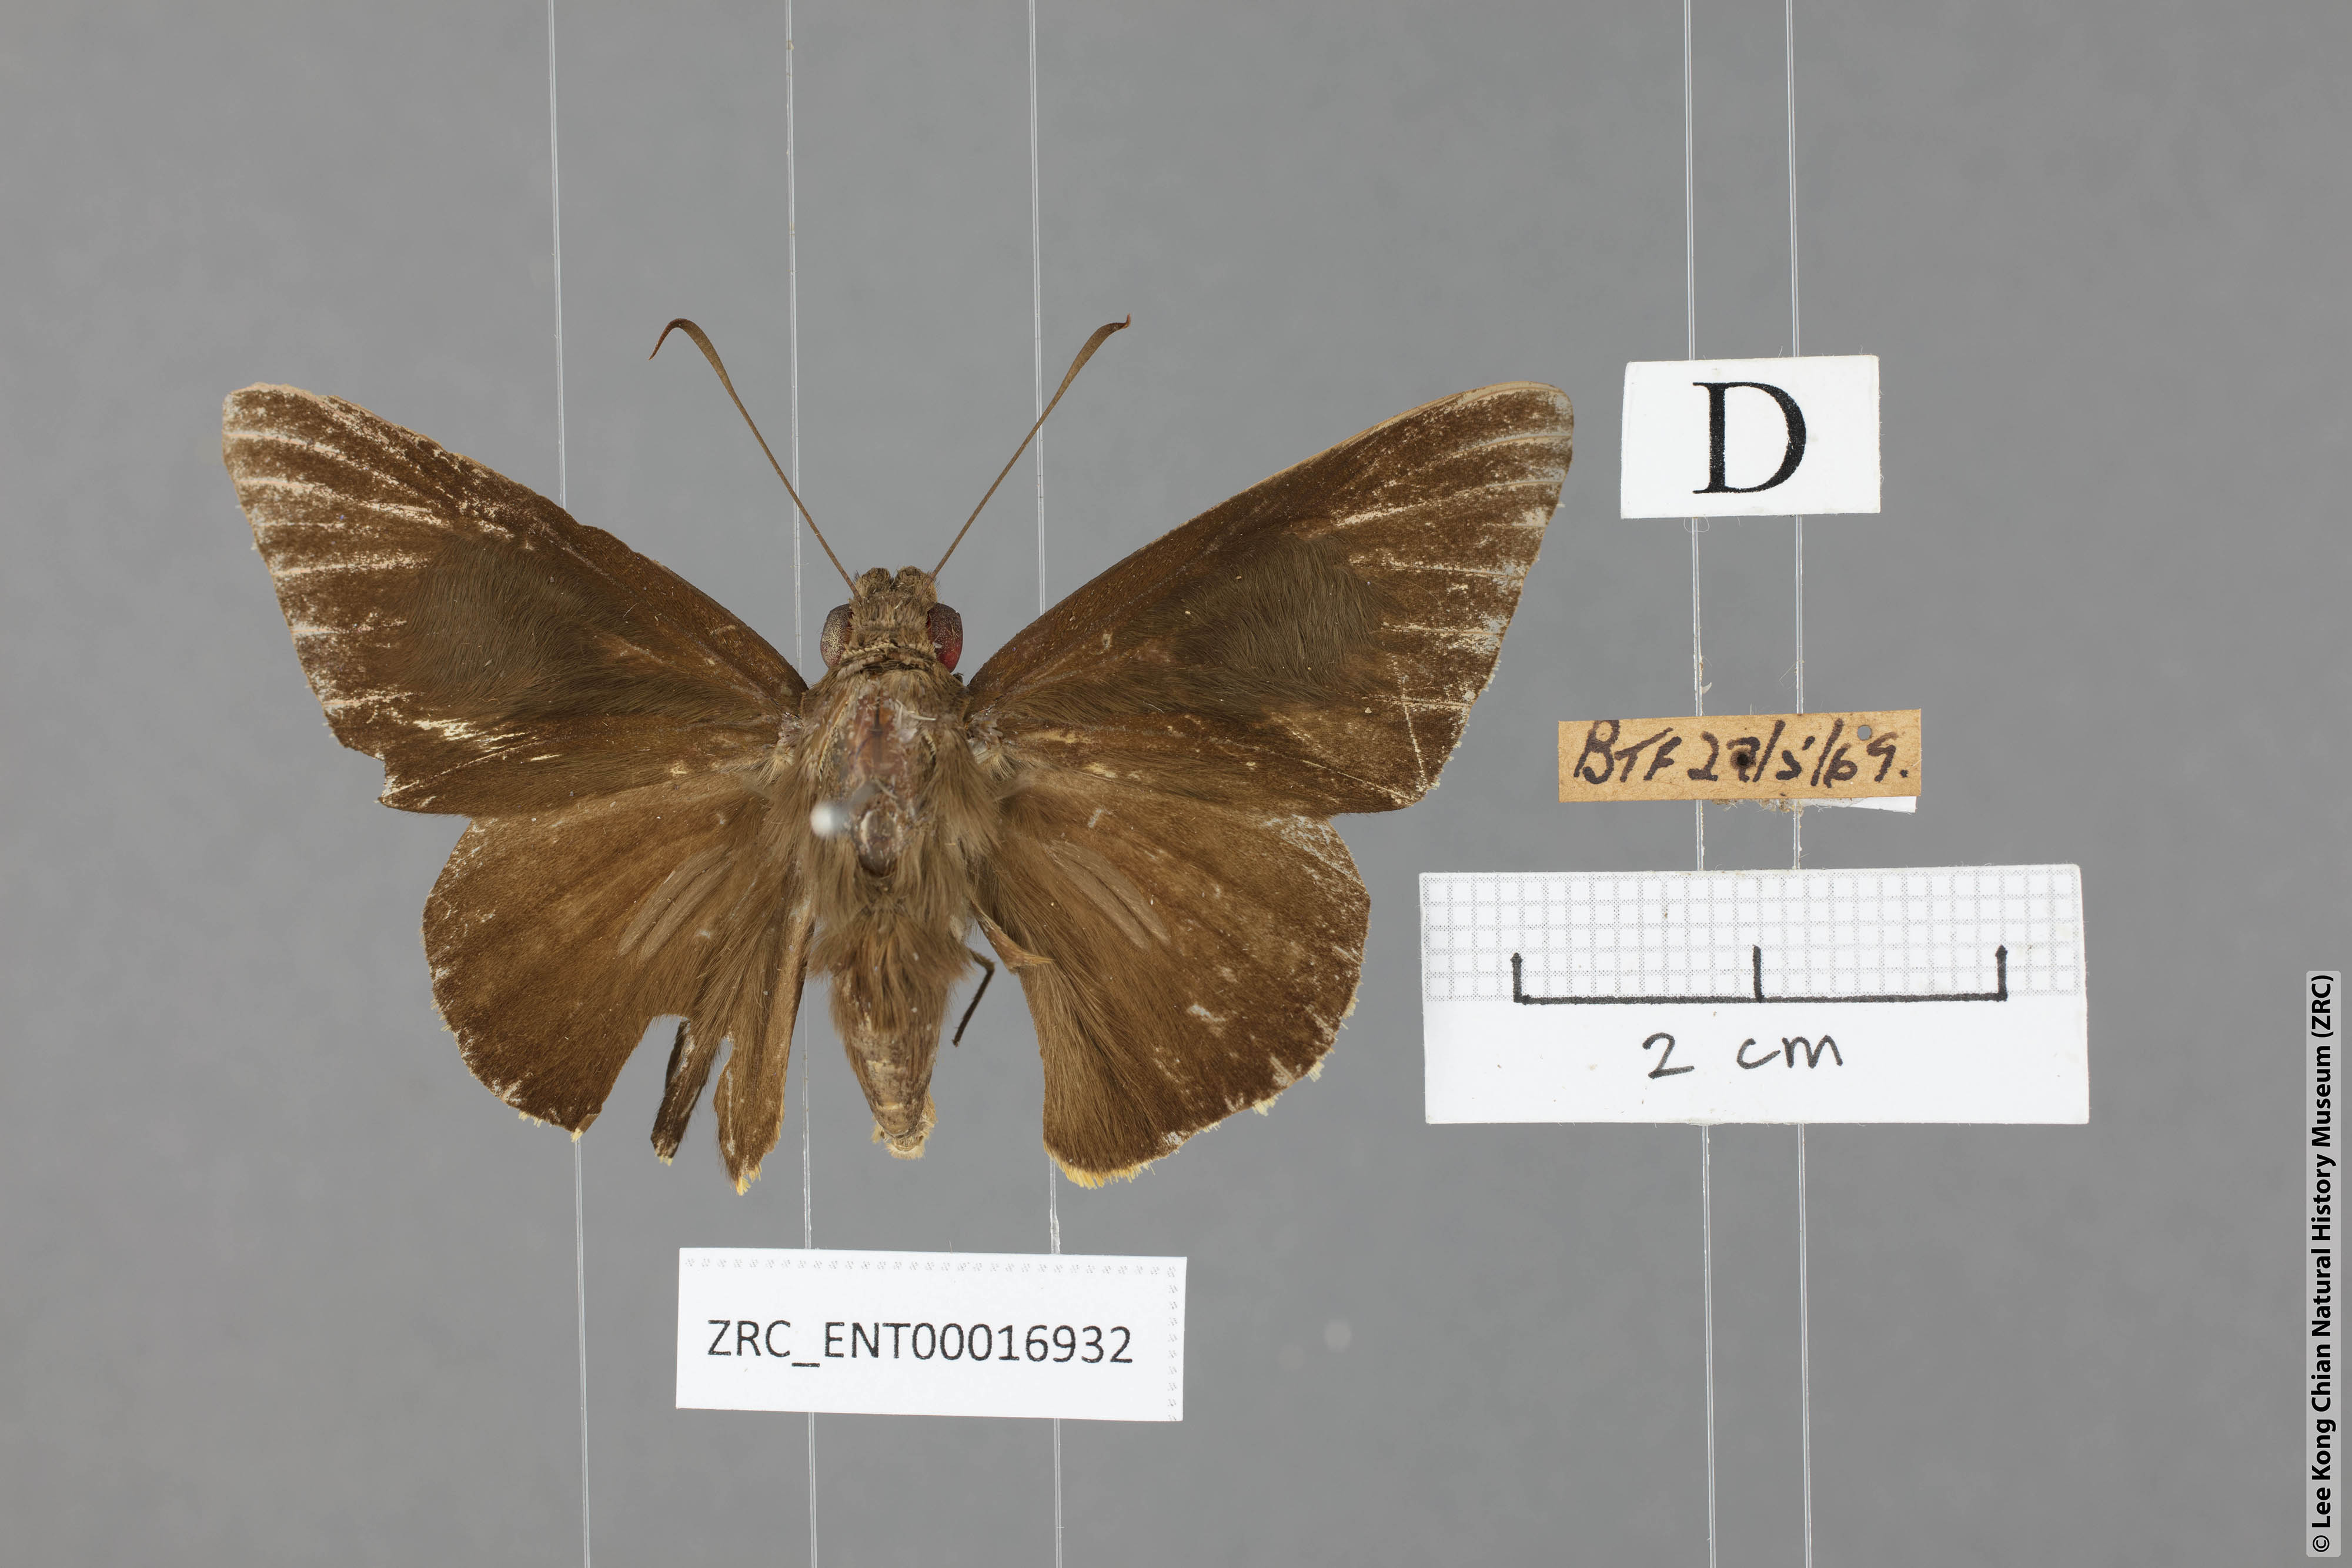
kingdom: Animalia
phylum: Arthropoda
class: Insecta
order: Lepidoptera
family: Hesperiidae
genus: Gangara
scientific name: Gangara lebadea
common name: Banded redeye
